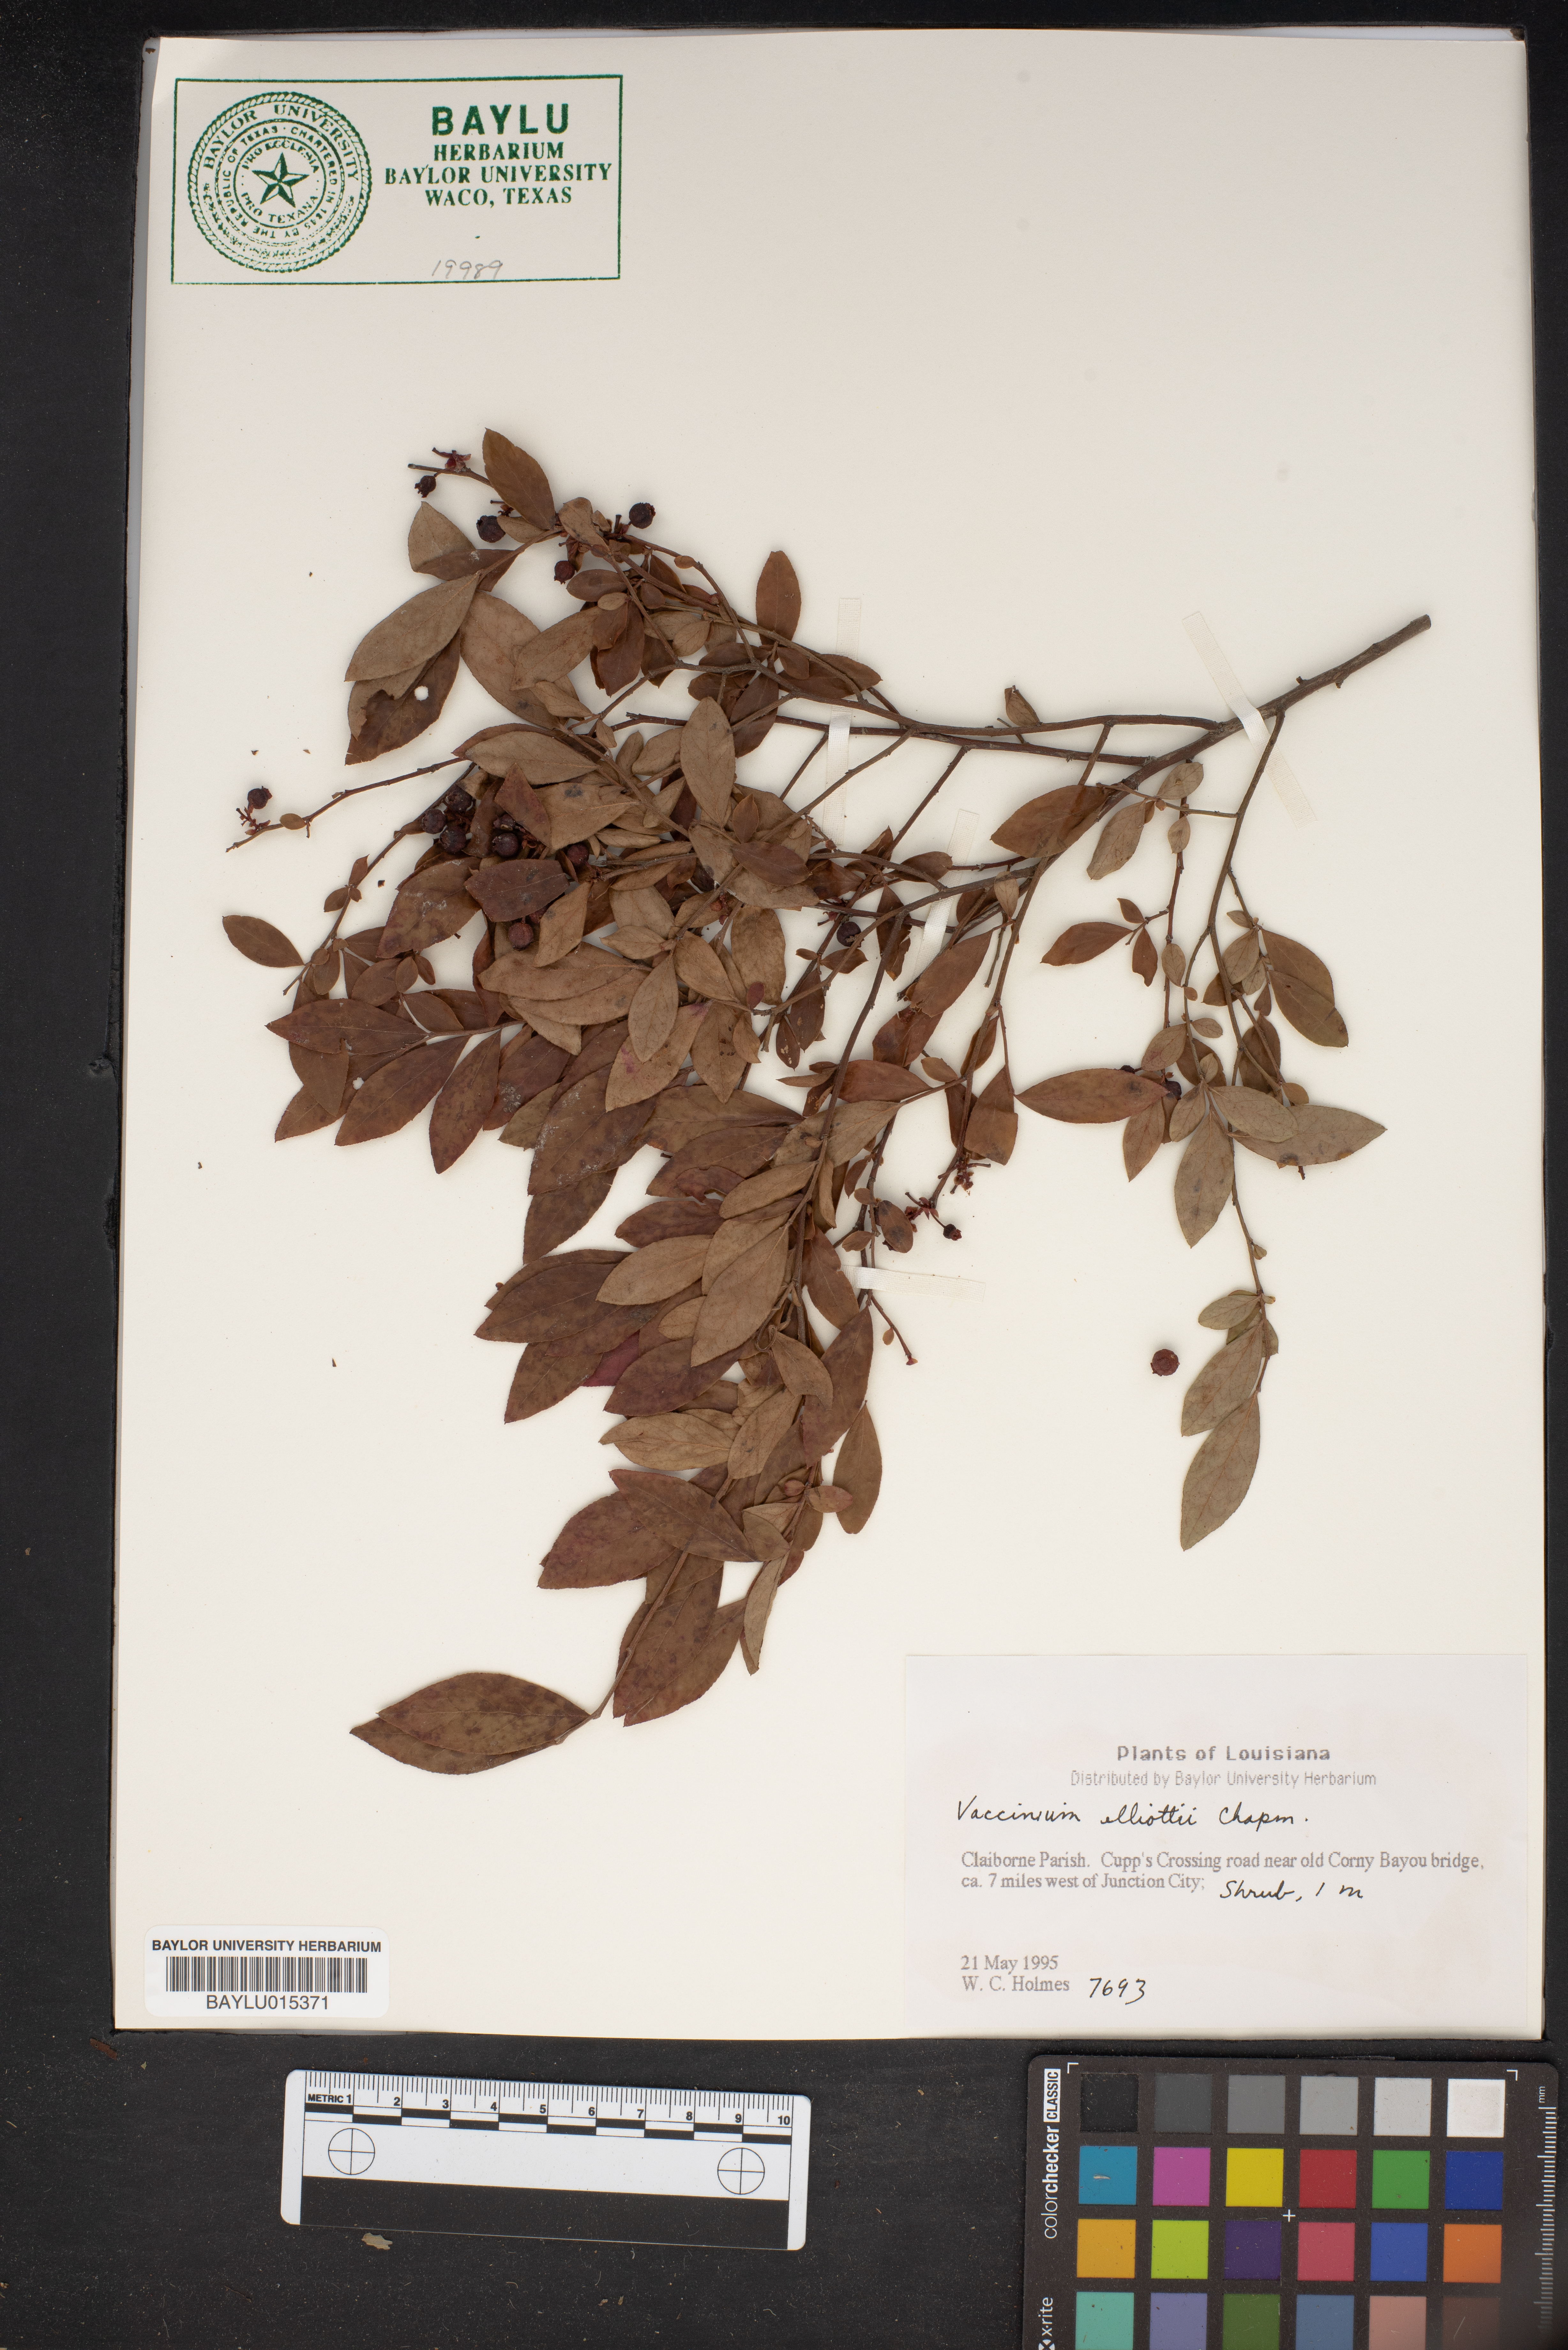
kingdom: Plantae
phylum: Tracheophyta
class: Magnoliopsida
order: Ericales
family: Ericaceae
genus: Vaccinium
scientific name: Vaccinium corymbosum
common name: Blueberry
